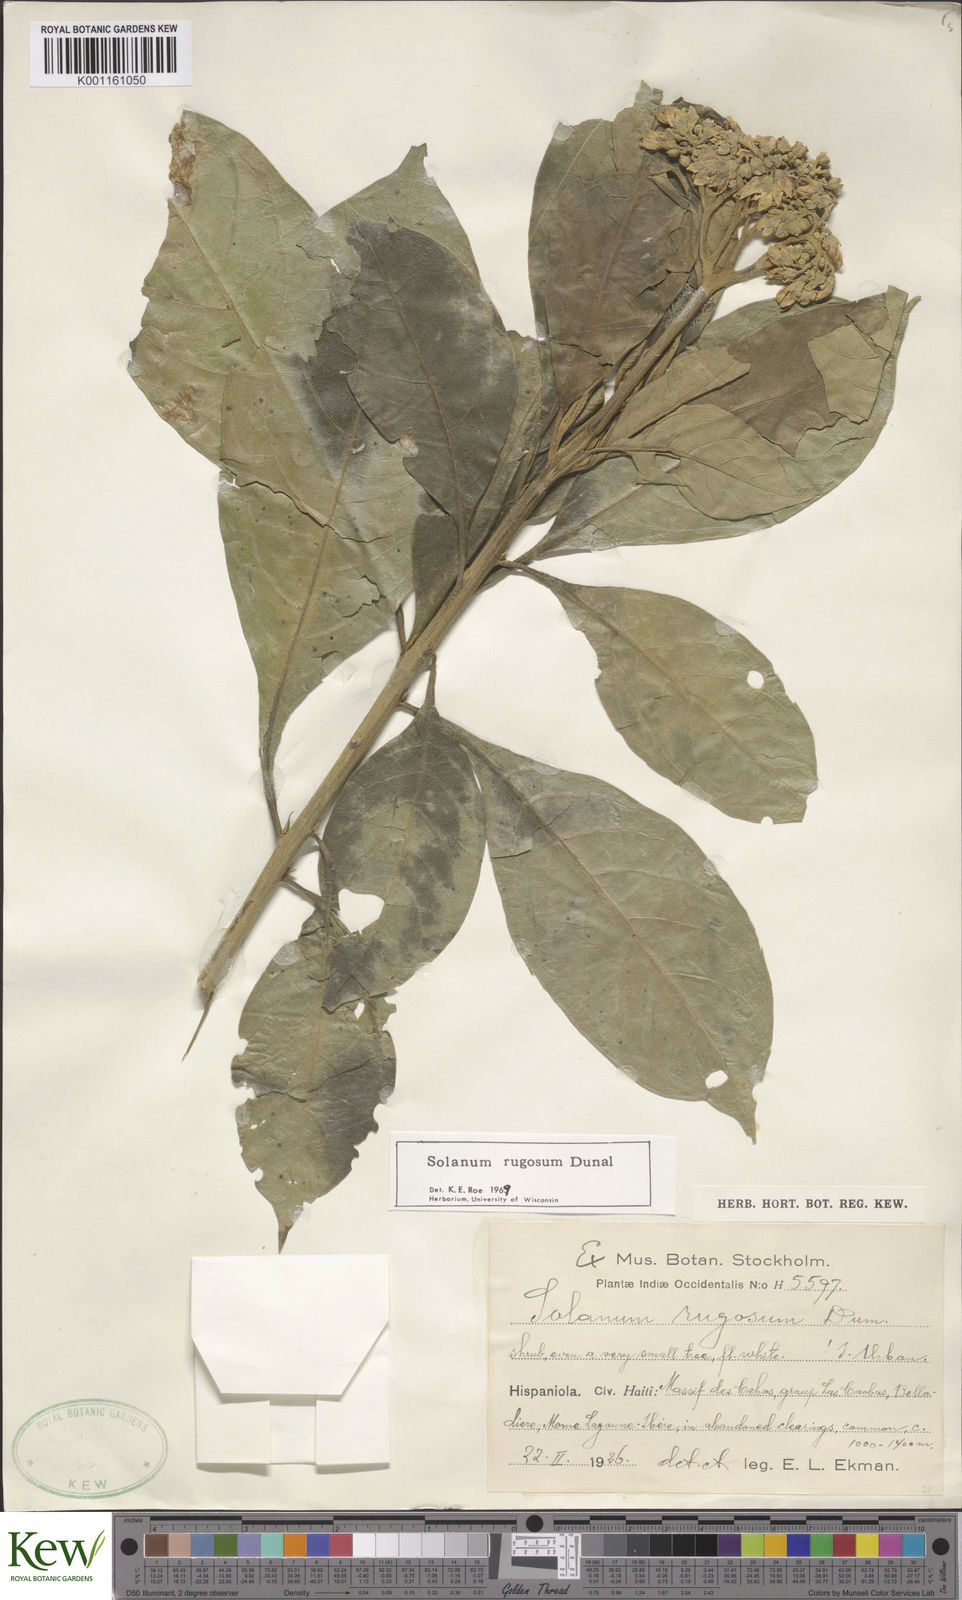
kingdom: Plantae
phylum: Tracheophyta
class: Magnoliopsida
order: Solanales
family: Solanaceae
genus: Solanum
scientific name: Solanum rugosum
